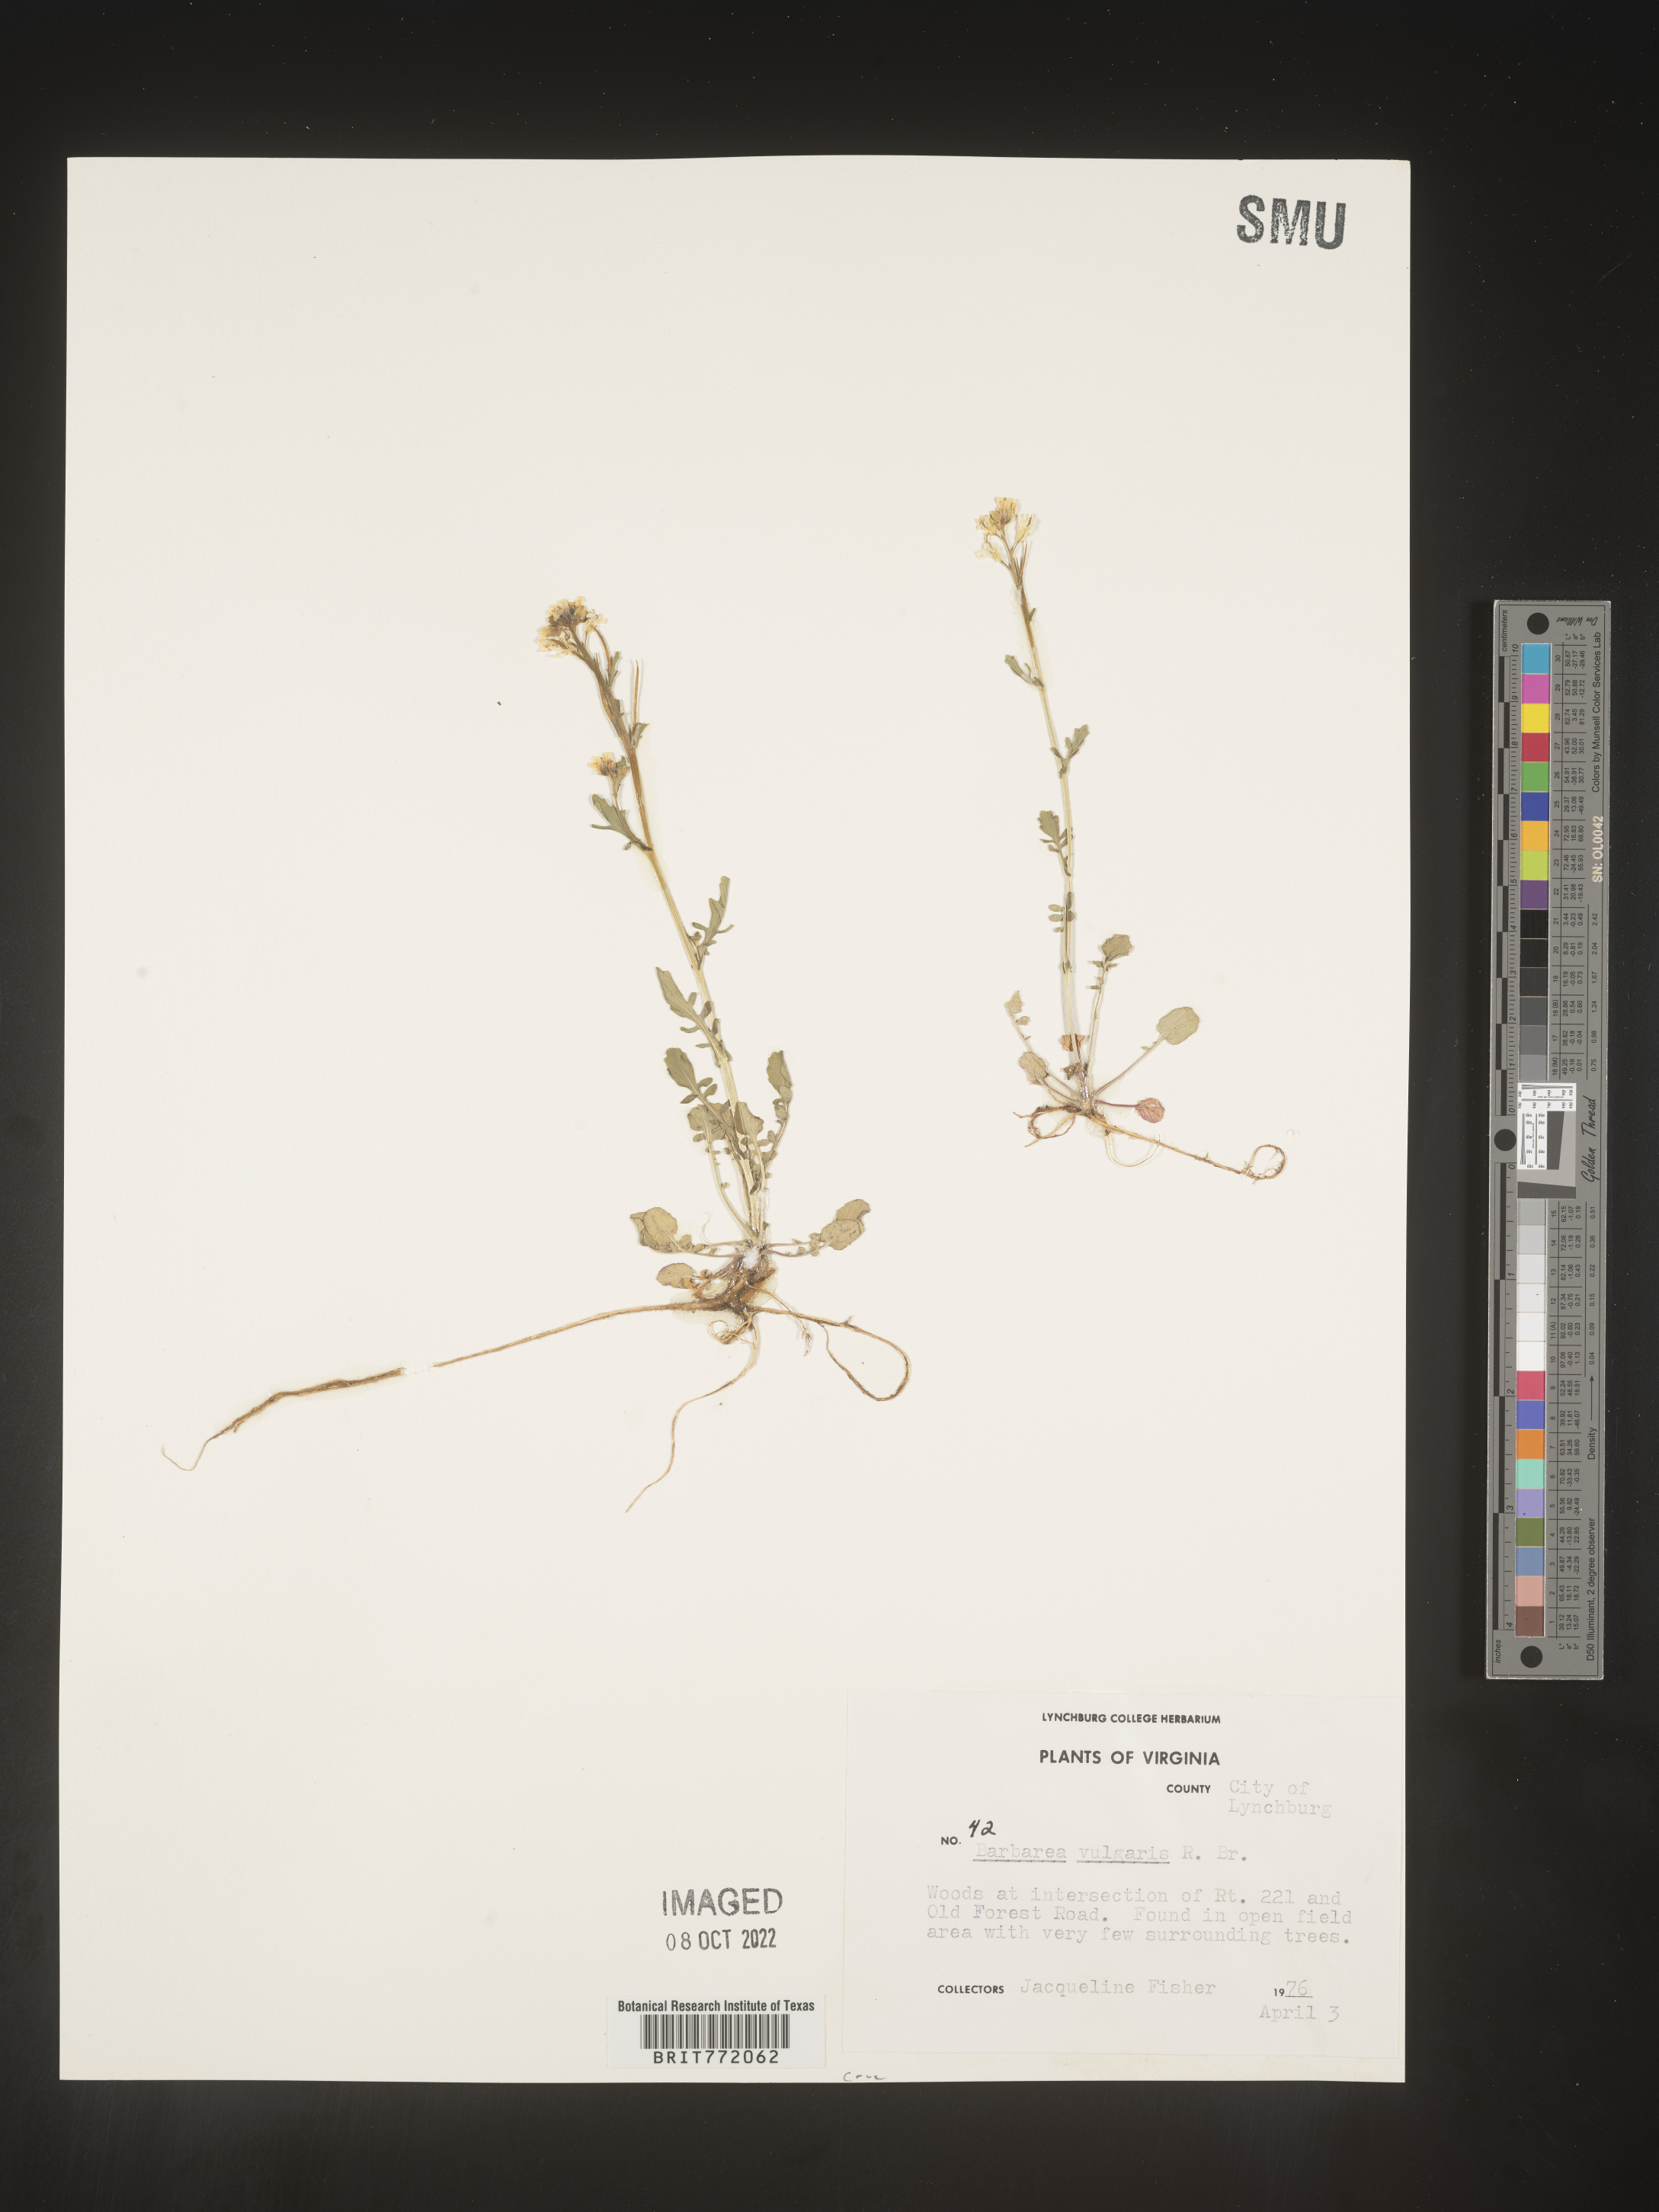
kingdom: Plantae
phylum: Tracheophyta
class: Magnoliopsida
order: Brassicales
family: Brassicaceae
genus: Barbarea
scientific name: Barbarea vulgaris
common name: Cressy-greens
